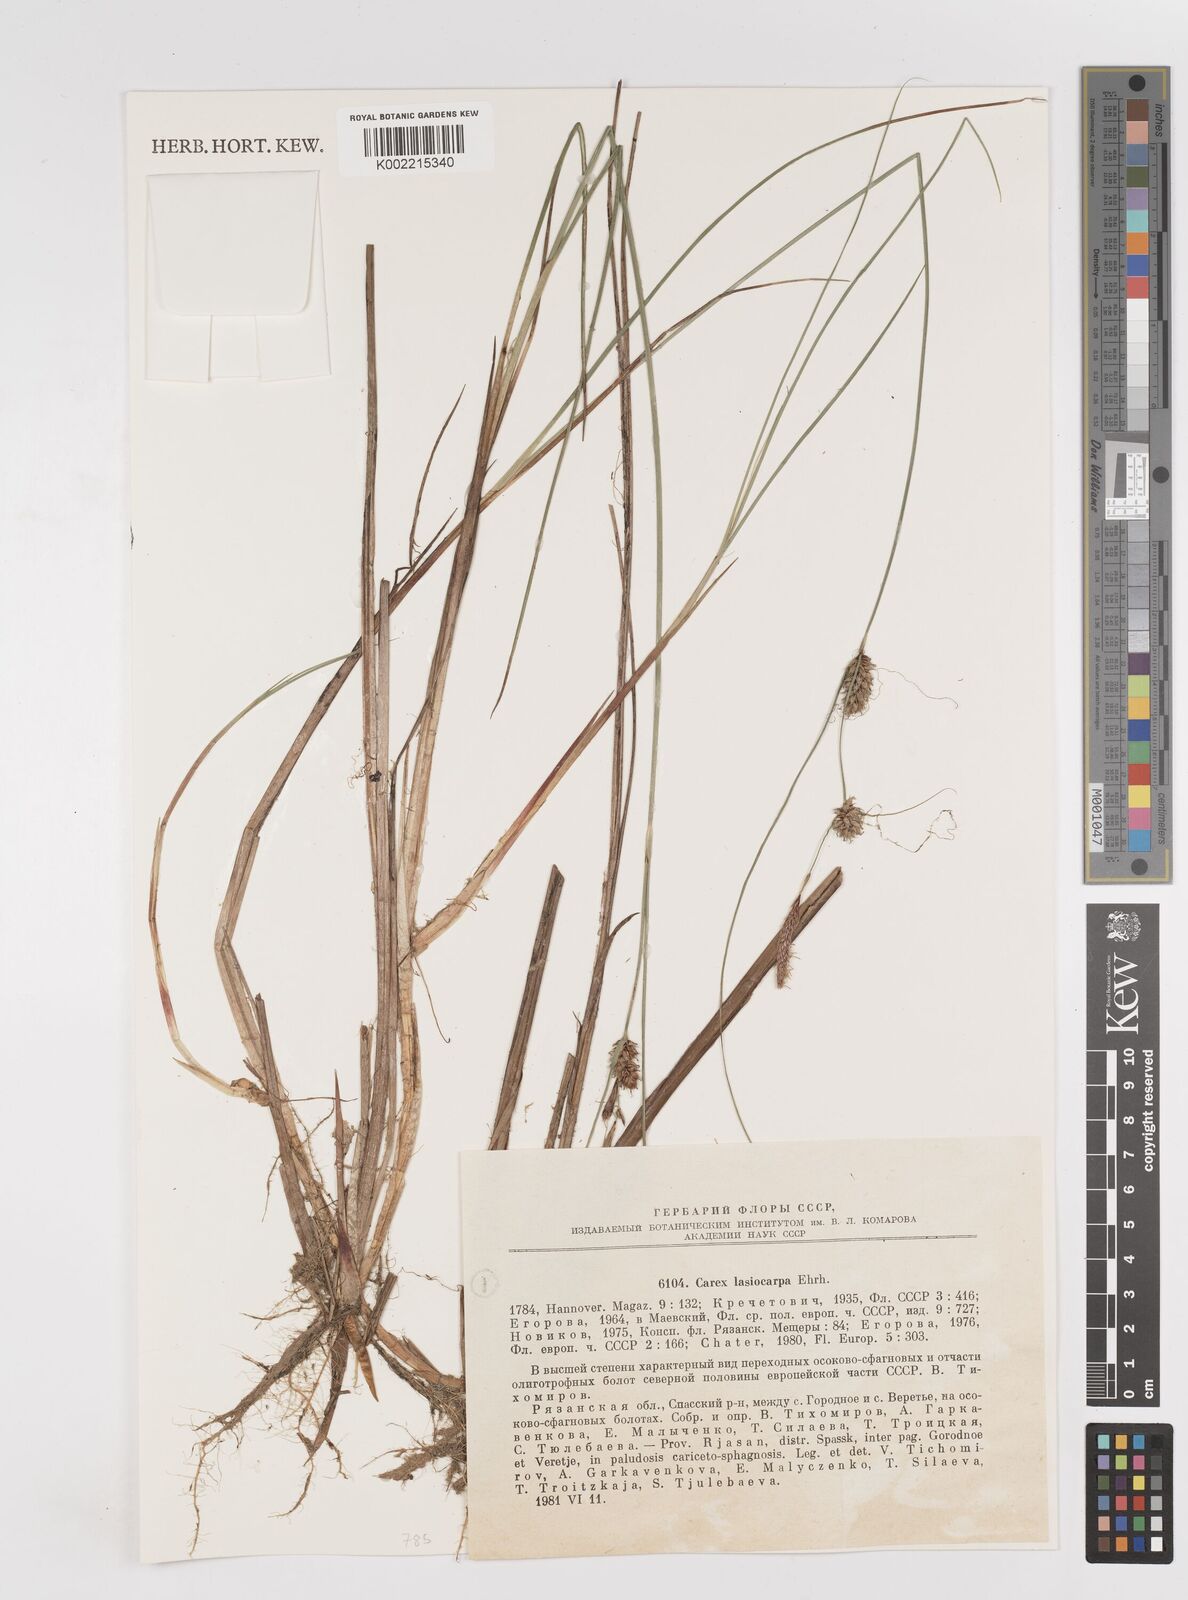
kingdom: Plantae
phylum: Tracheophyta
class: Liliopsida
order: Poales
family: Cyperaceae
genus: Carex
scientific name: Carex lasiocarpa
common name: Slender sedge
